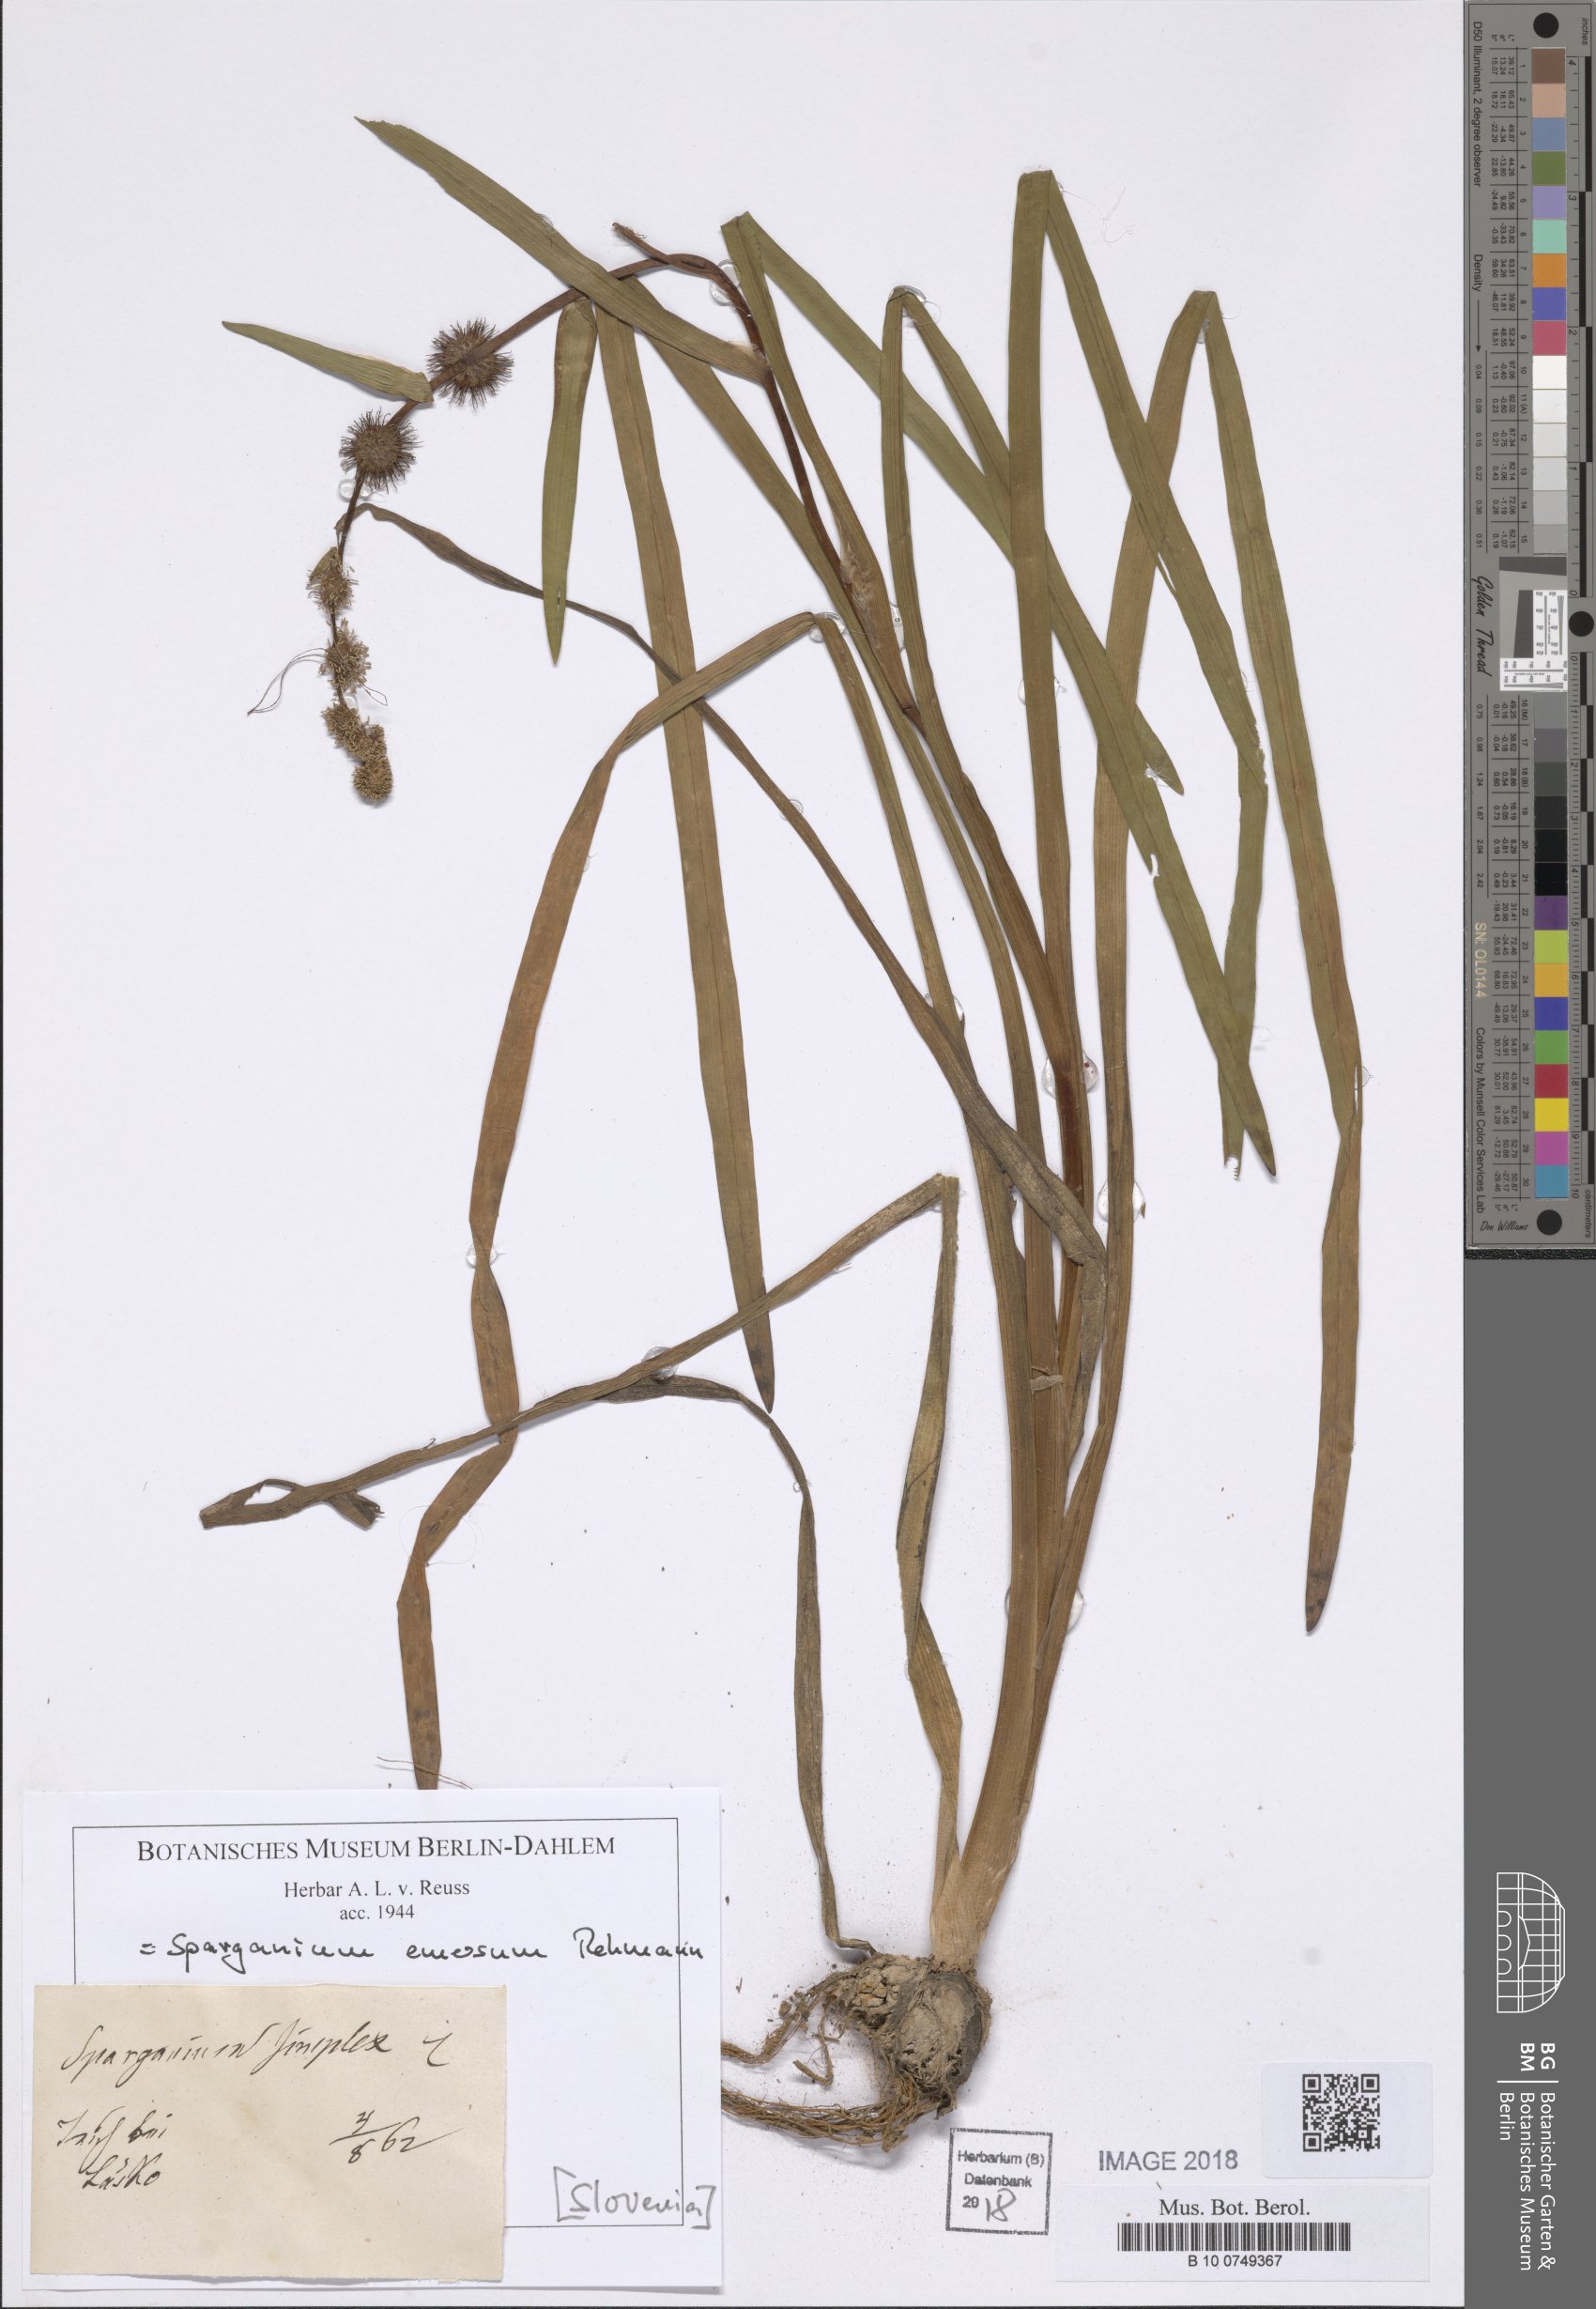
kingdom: Plantae
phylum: Tracheophyta
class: Liliopsida
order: Poales
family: Typhaceae
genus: Sparganium
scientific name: Sparganium emersum
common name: Unbranched bur-reed
